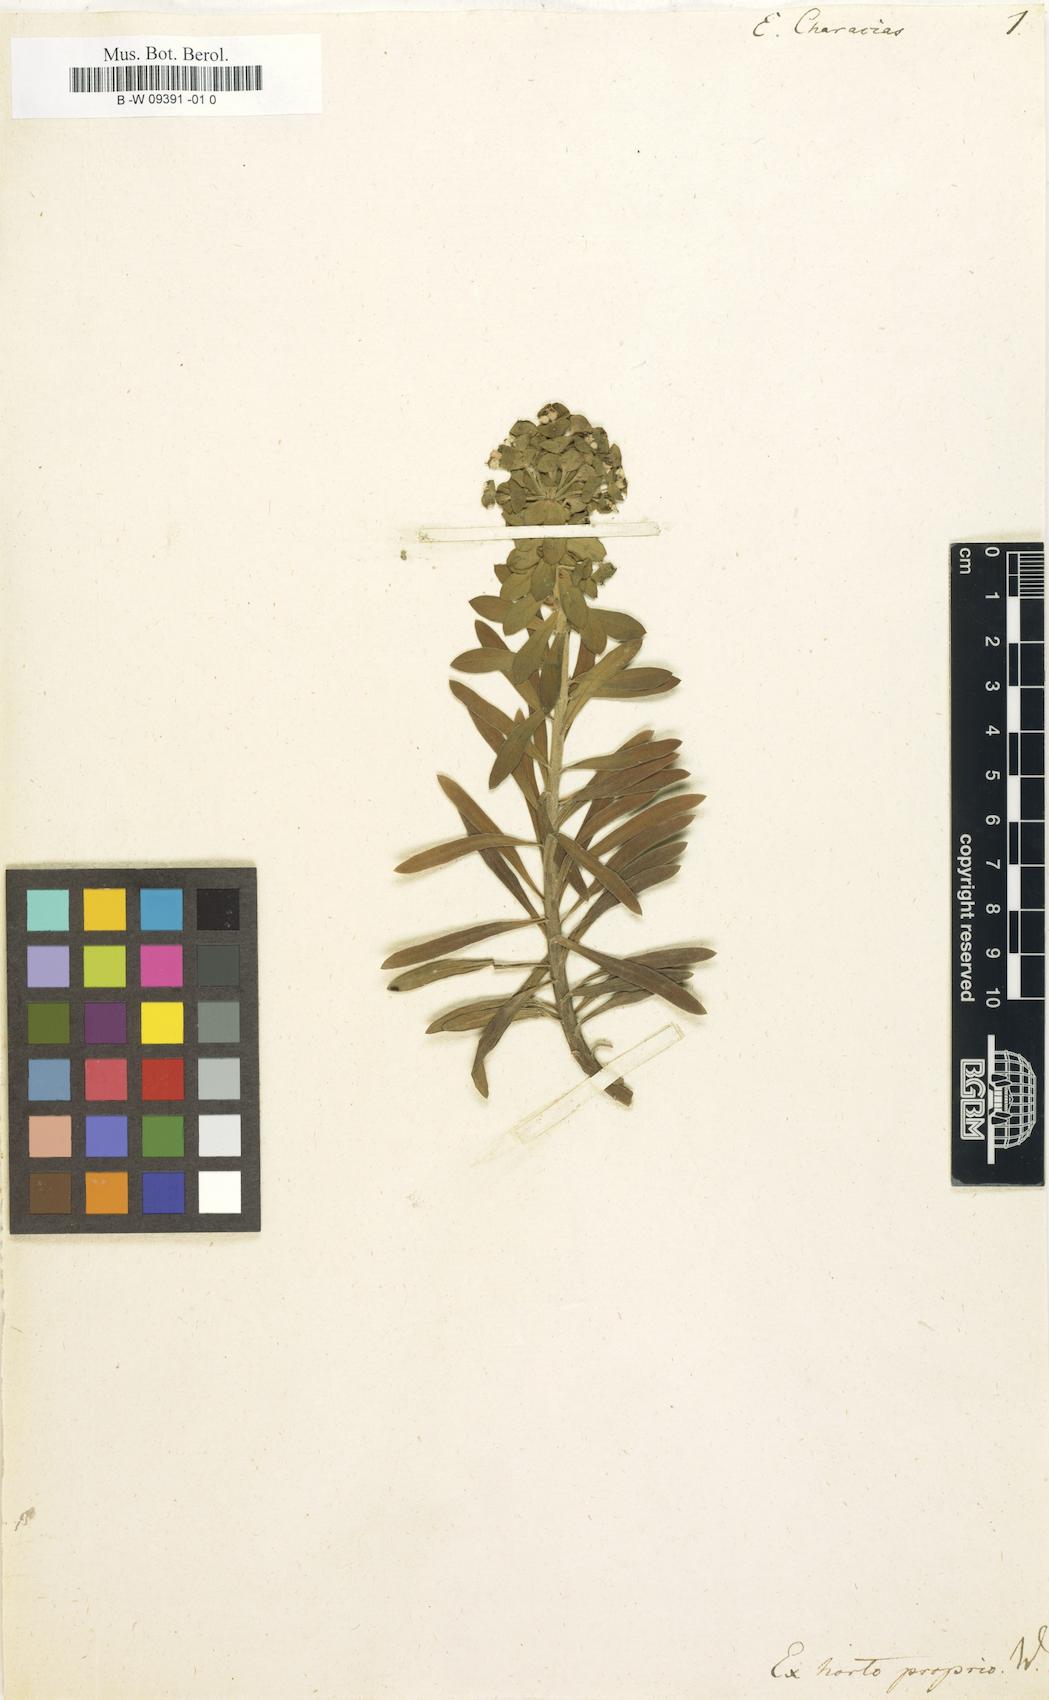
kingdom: Plantae
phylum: Tracheophyta
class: Magnoliopsida
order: Malpighiales
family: Euphorbiaceae
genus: Euphorbia
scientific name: Euphorbia characias
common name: Mediterranean spurge
